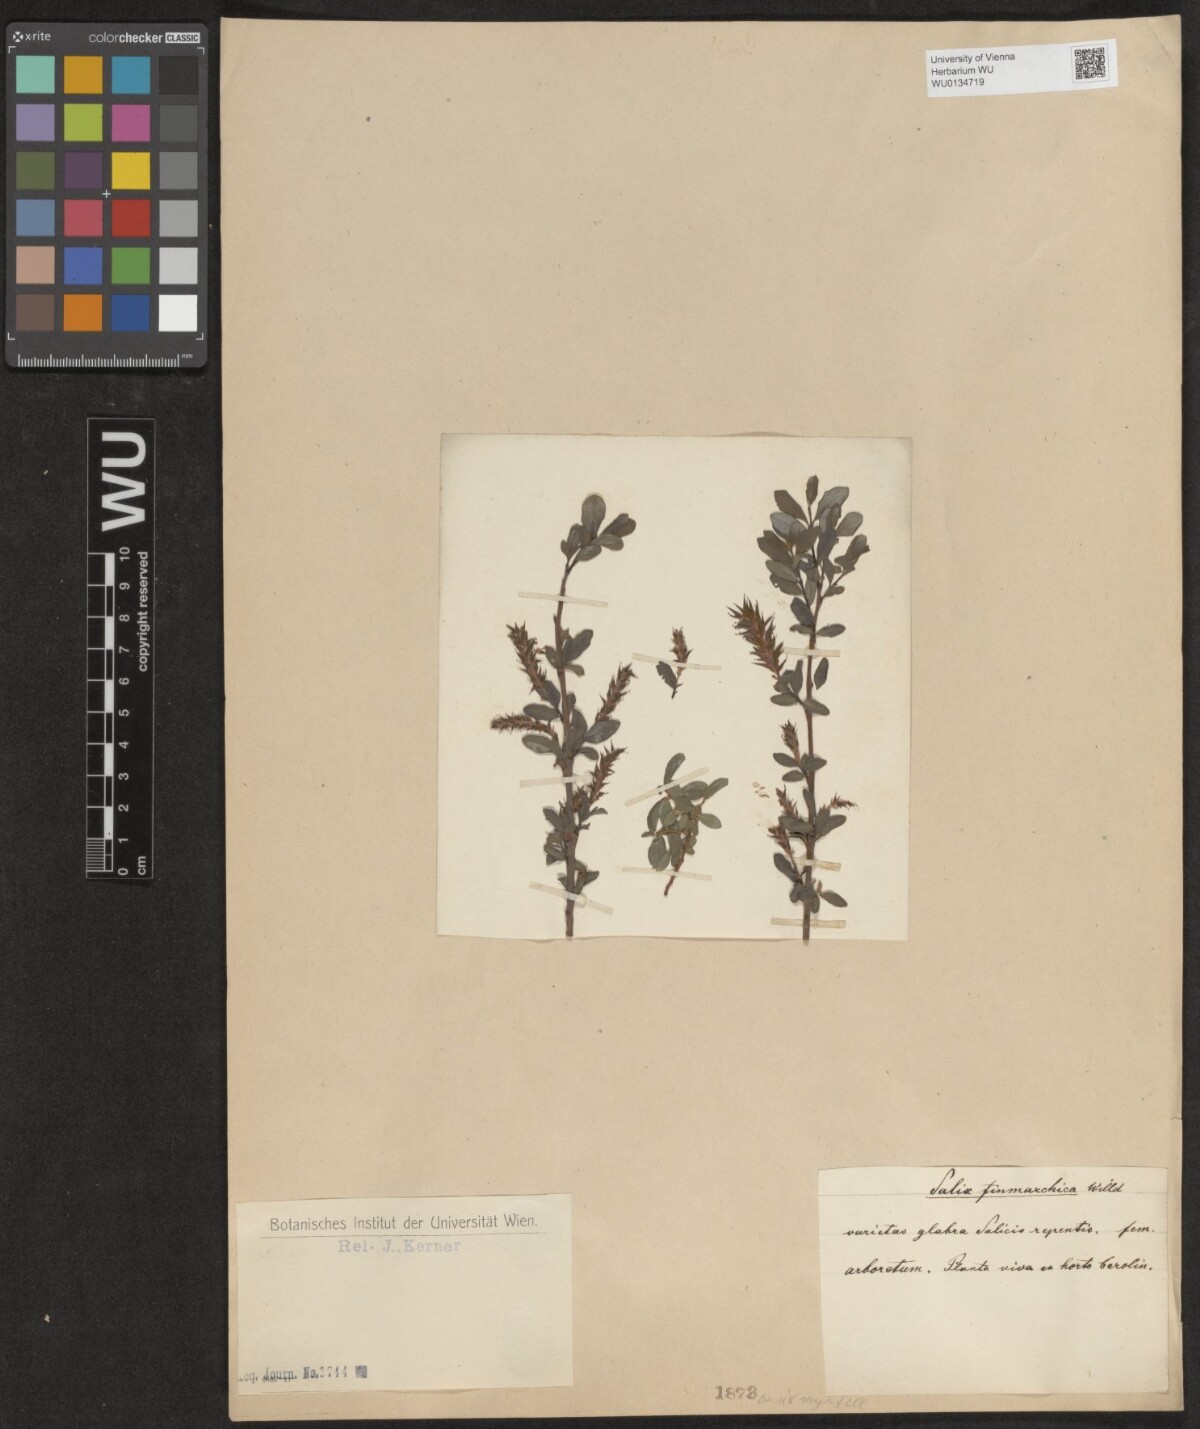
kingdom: Plantae
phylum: Tracheophyta
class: Magnoliopsida
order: Malpighiales
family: Salicaceae
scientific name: Salicaceae
